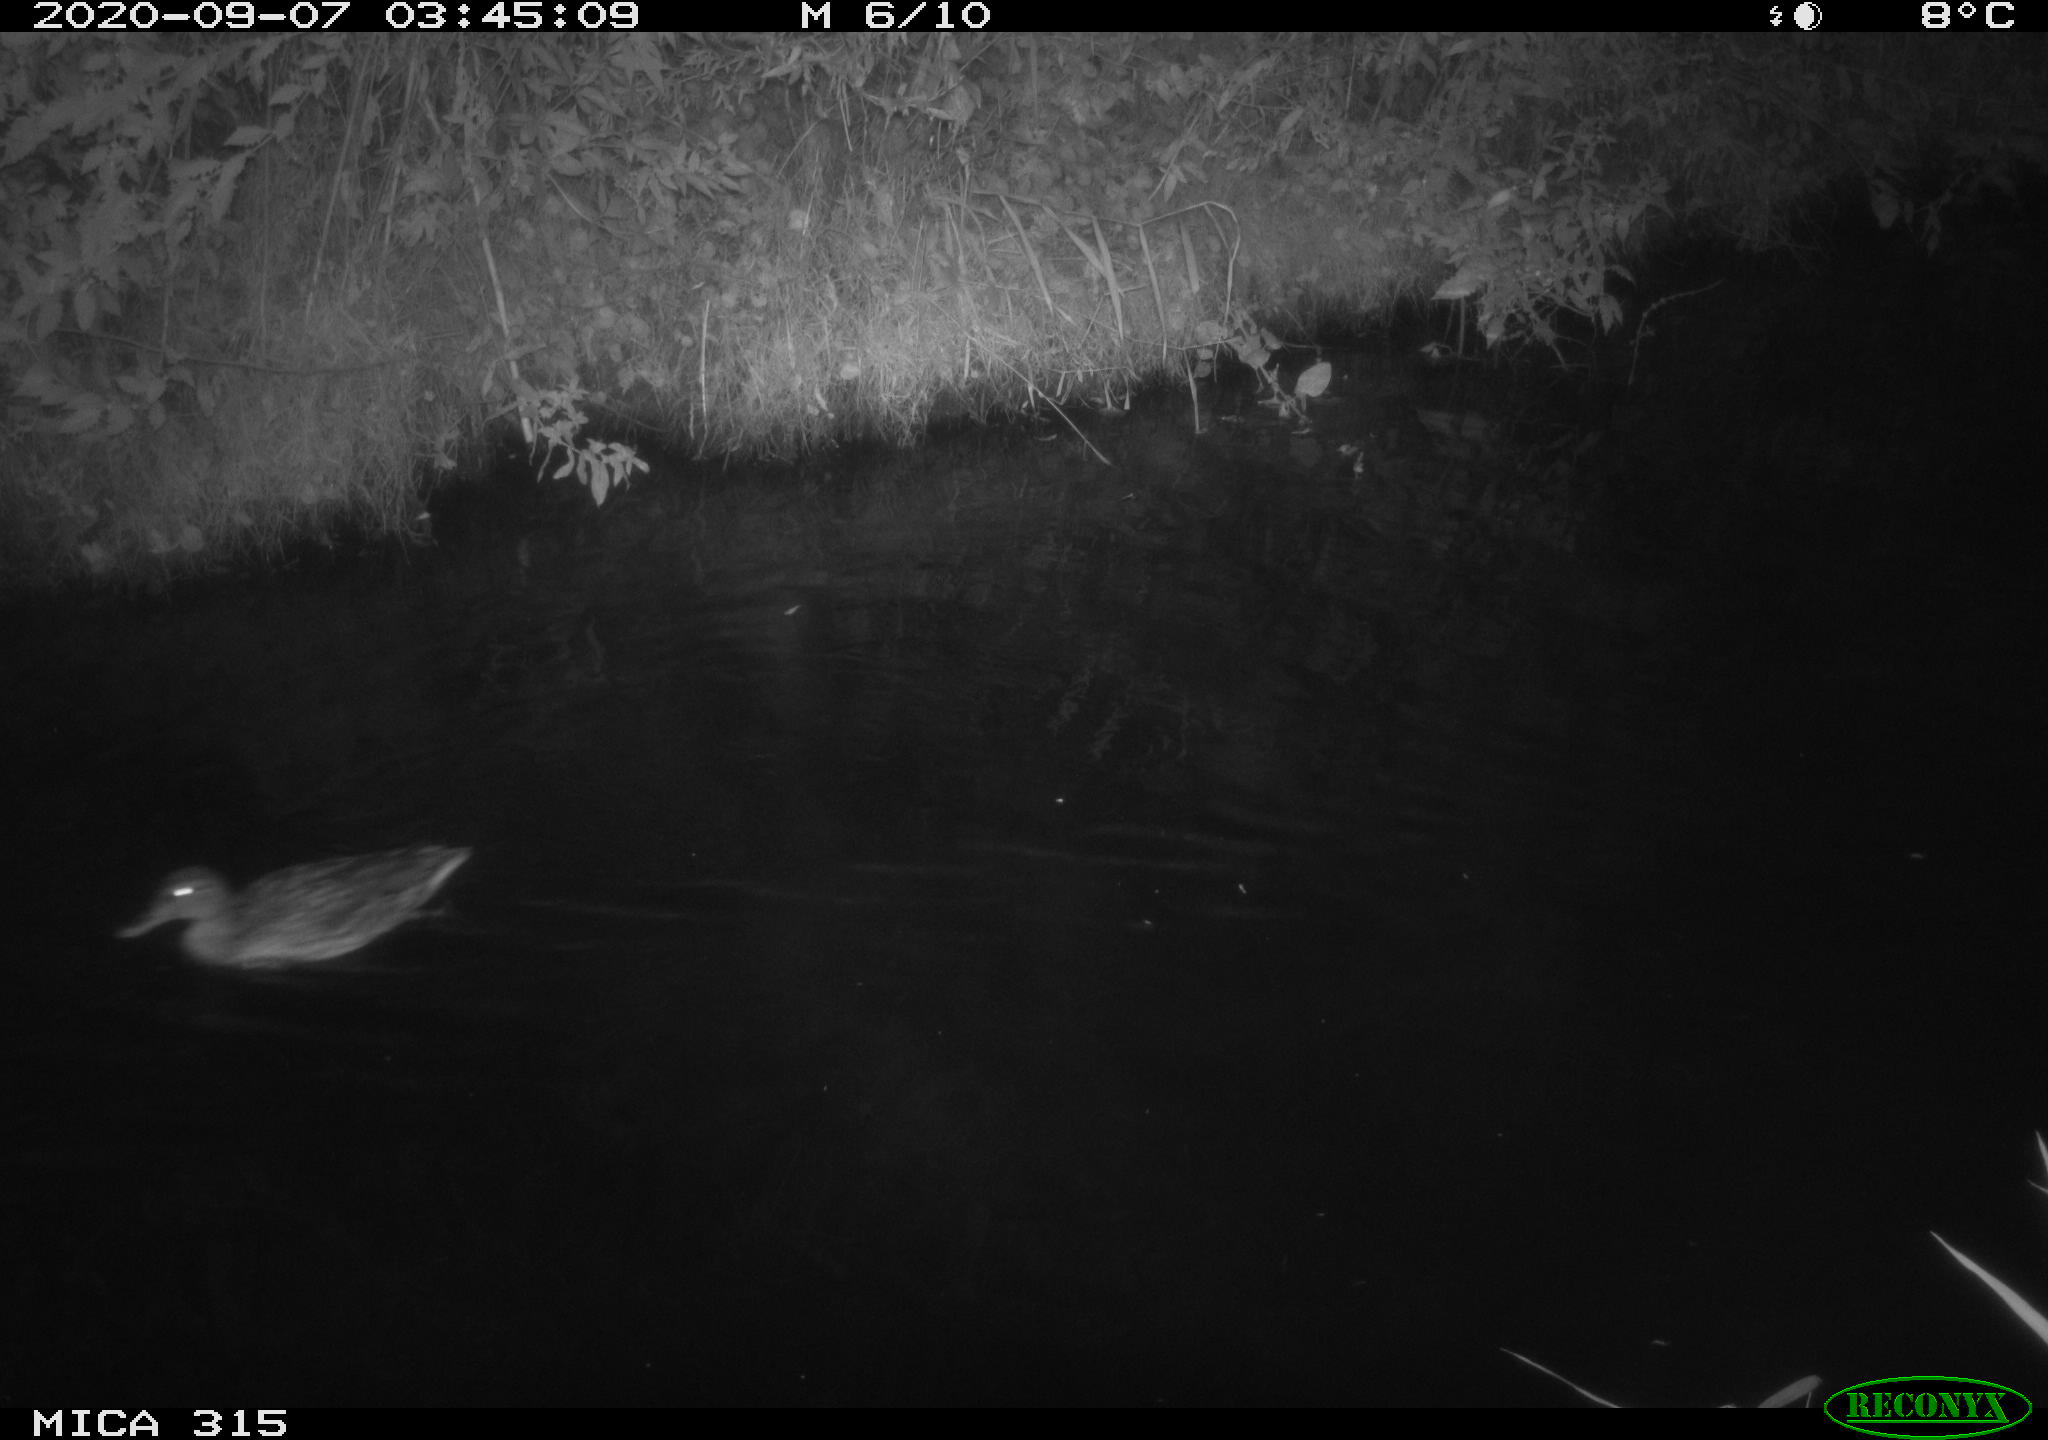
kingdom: Animalia
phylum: Chordata
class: Aves
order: Anseriformes
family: Anatidae
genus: Anas
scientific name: Anas platyrhynchos
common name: Mallard
